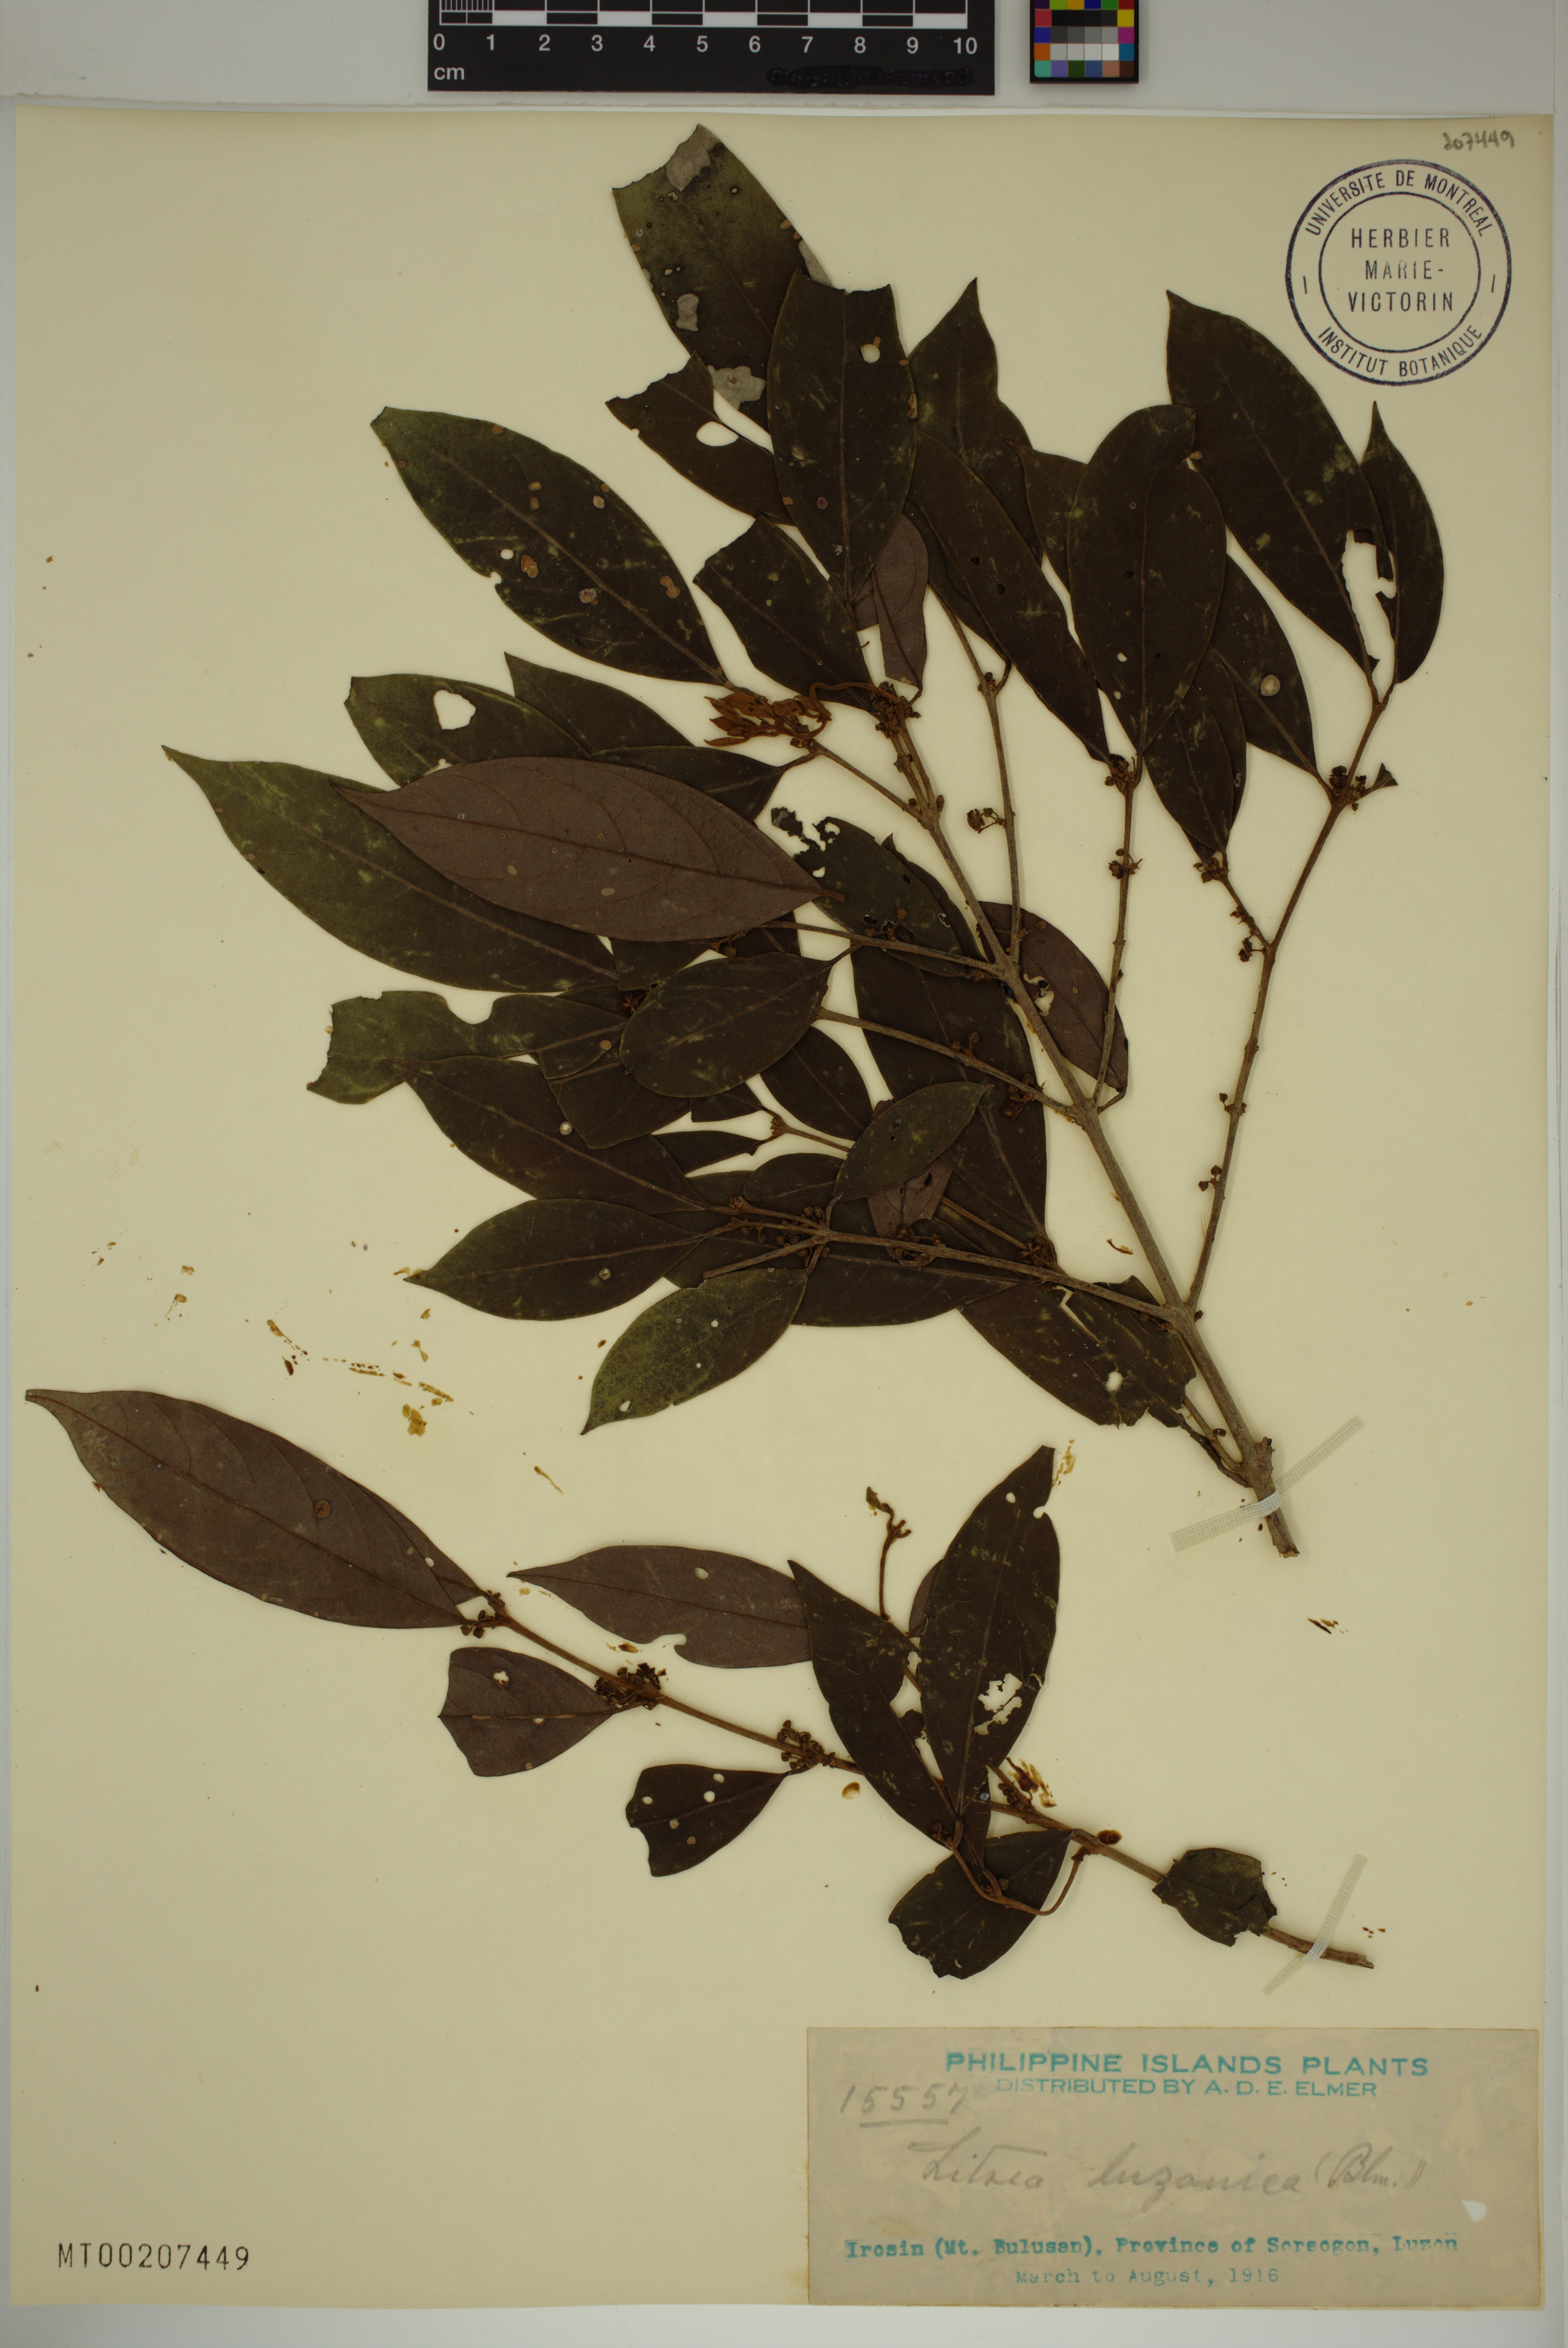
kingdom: Plantae
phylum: Tracheophyta
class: Magnoliopsida
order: Laurales
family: Lauraceae
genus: Litsea
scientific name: Litsea luzonica
